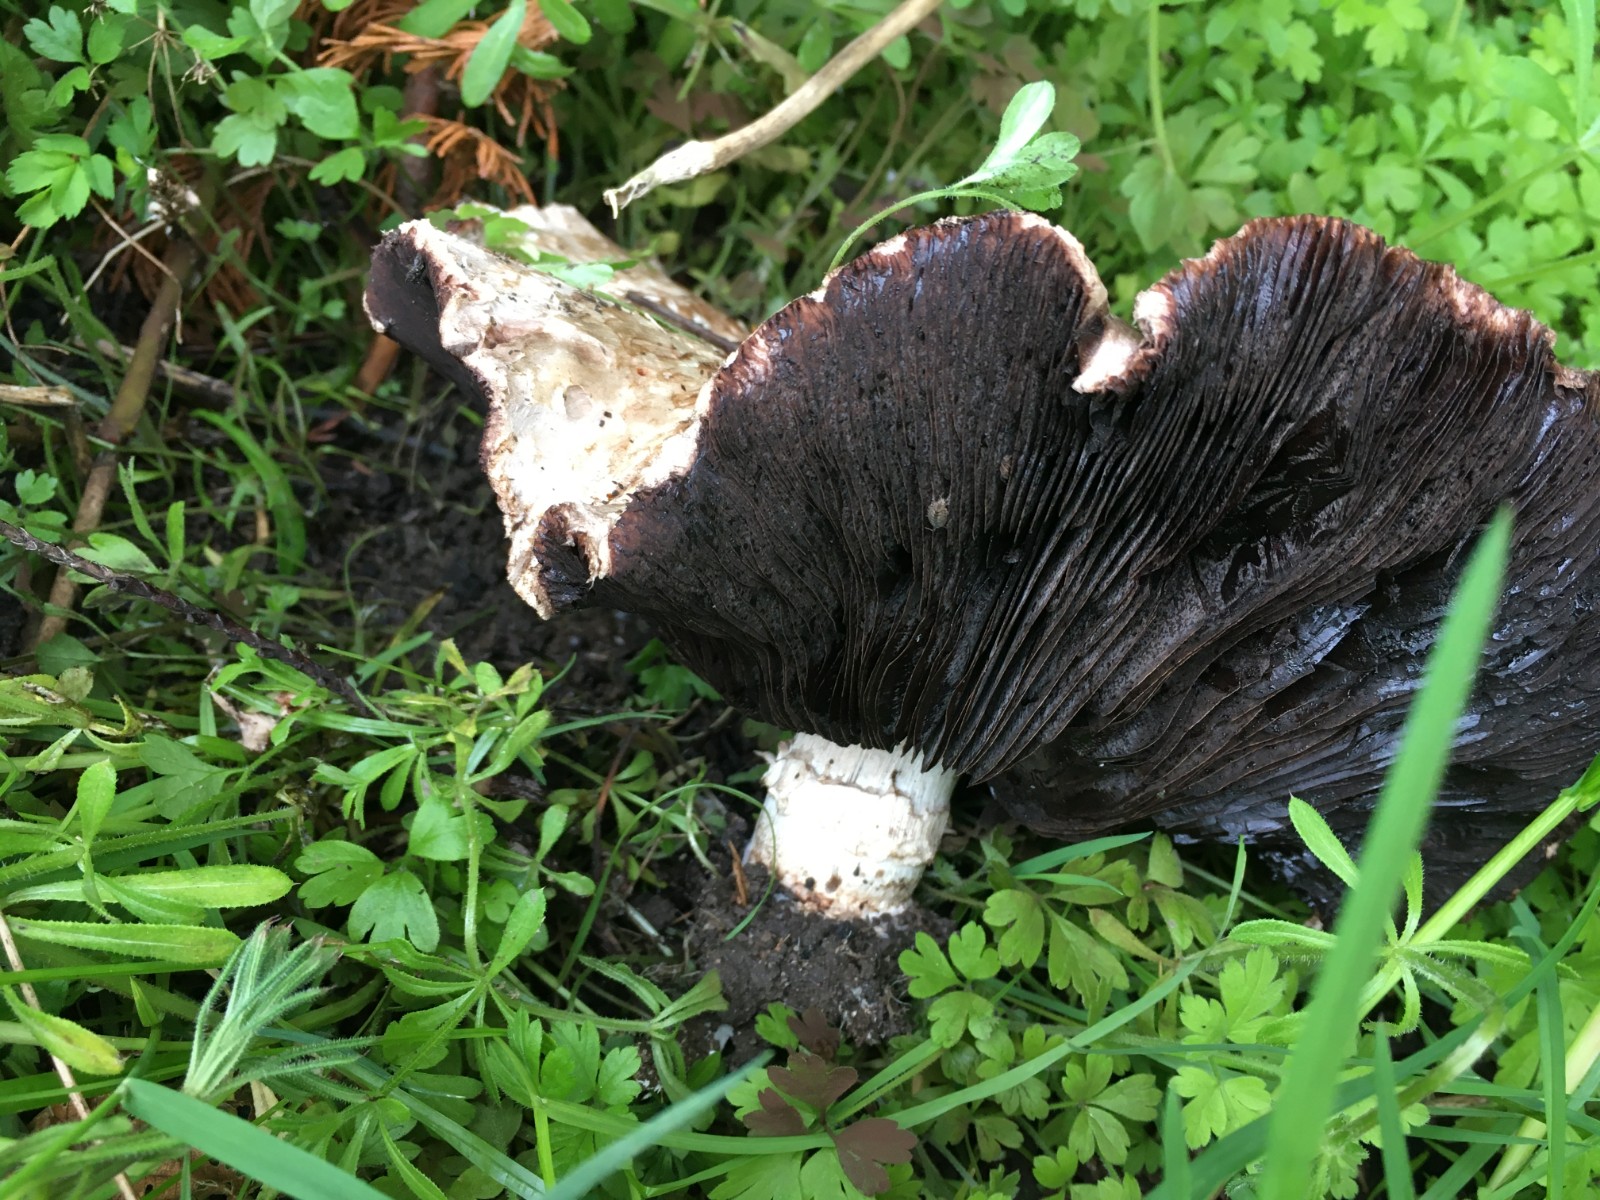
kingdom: Fungi
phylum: Basidiomycota
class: Agaricomycetes
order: Agaricales
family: Agaricaceae
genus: Agaricus
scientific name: Agaricus bitorquis
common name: vej-champignon
